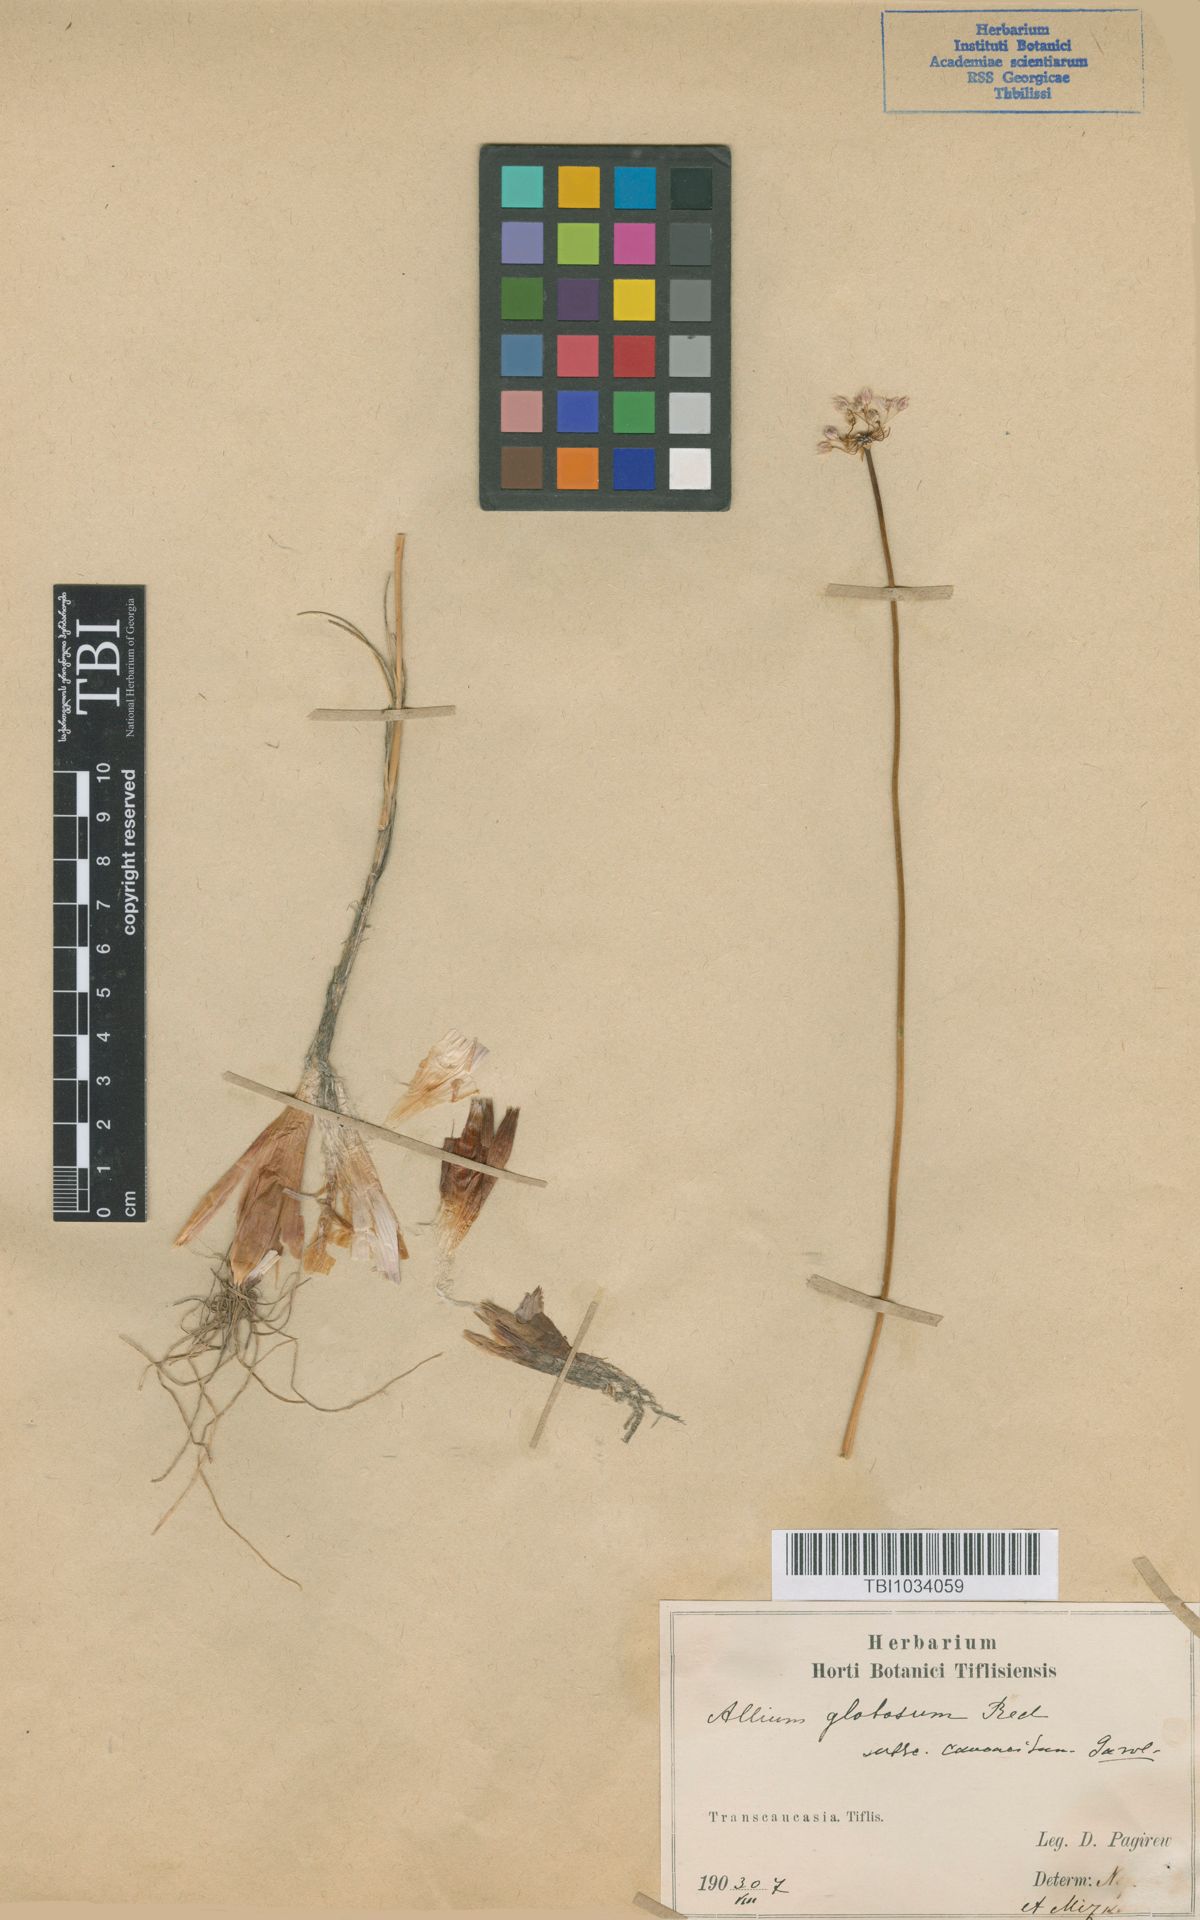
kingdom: Plantae
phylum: Tracheophyta
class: Liliopsida
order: Asparagales
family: Amaryllidaceae
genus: Allium
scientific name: Allium saxatile
